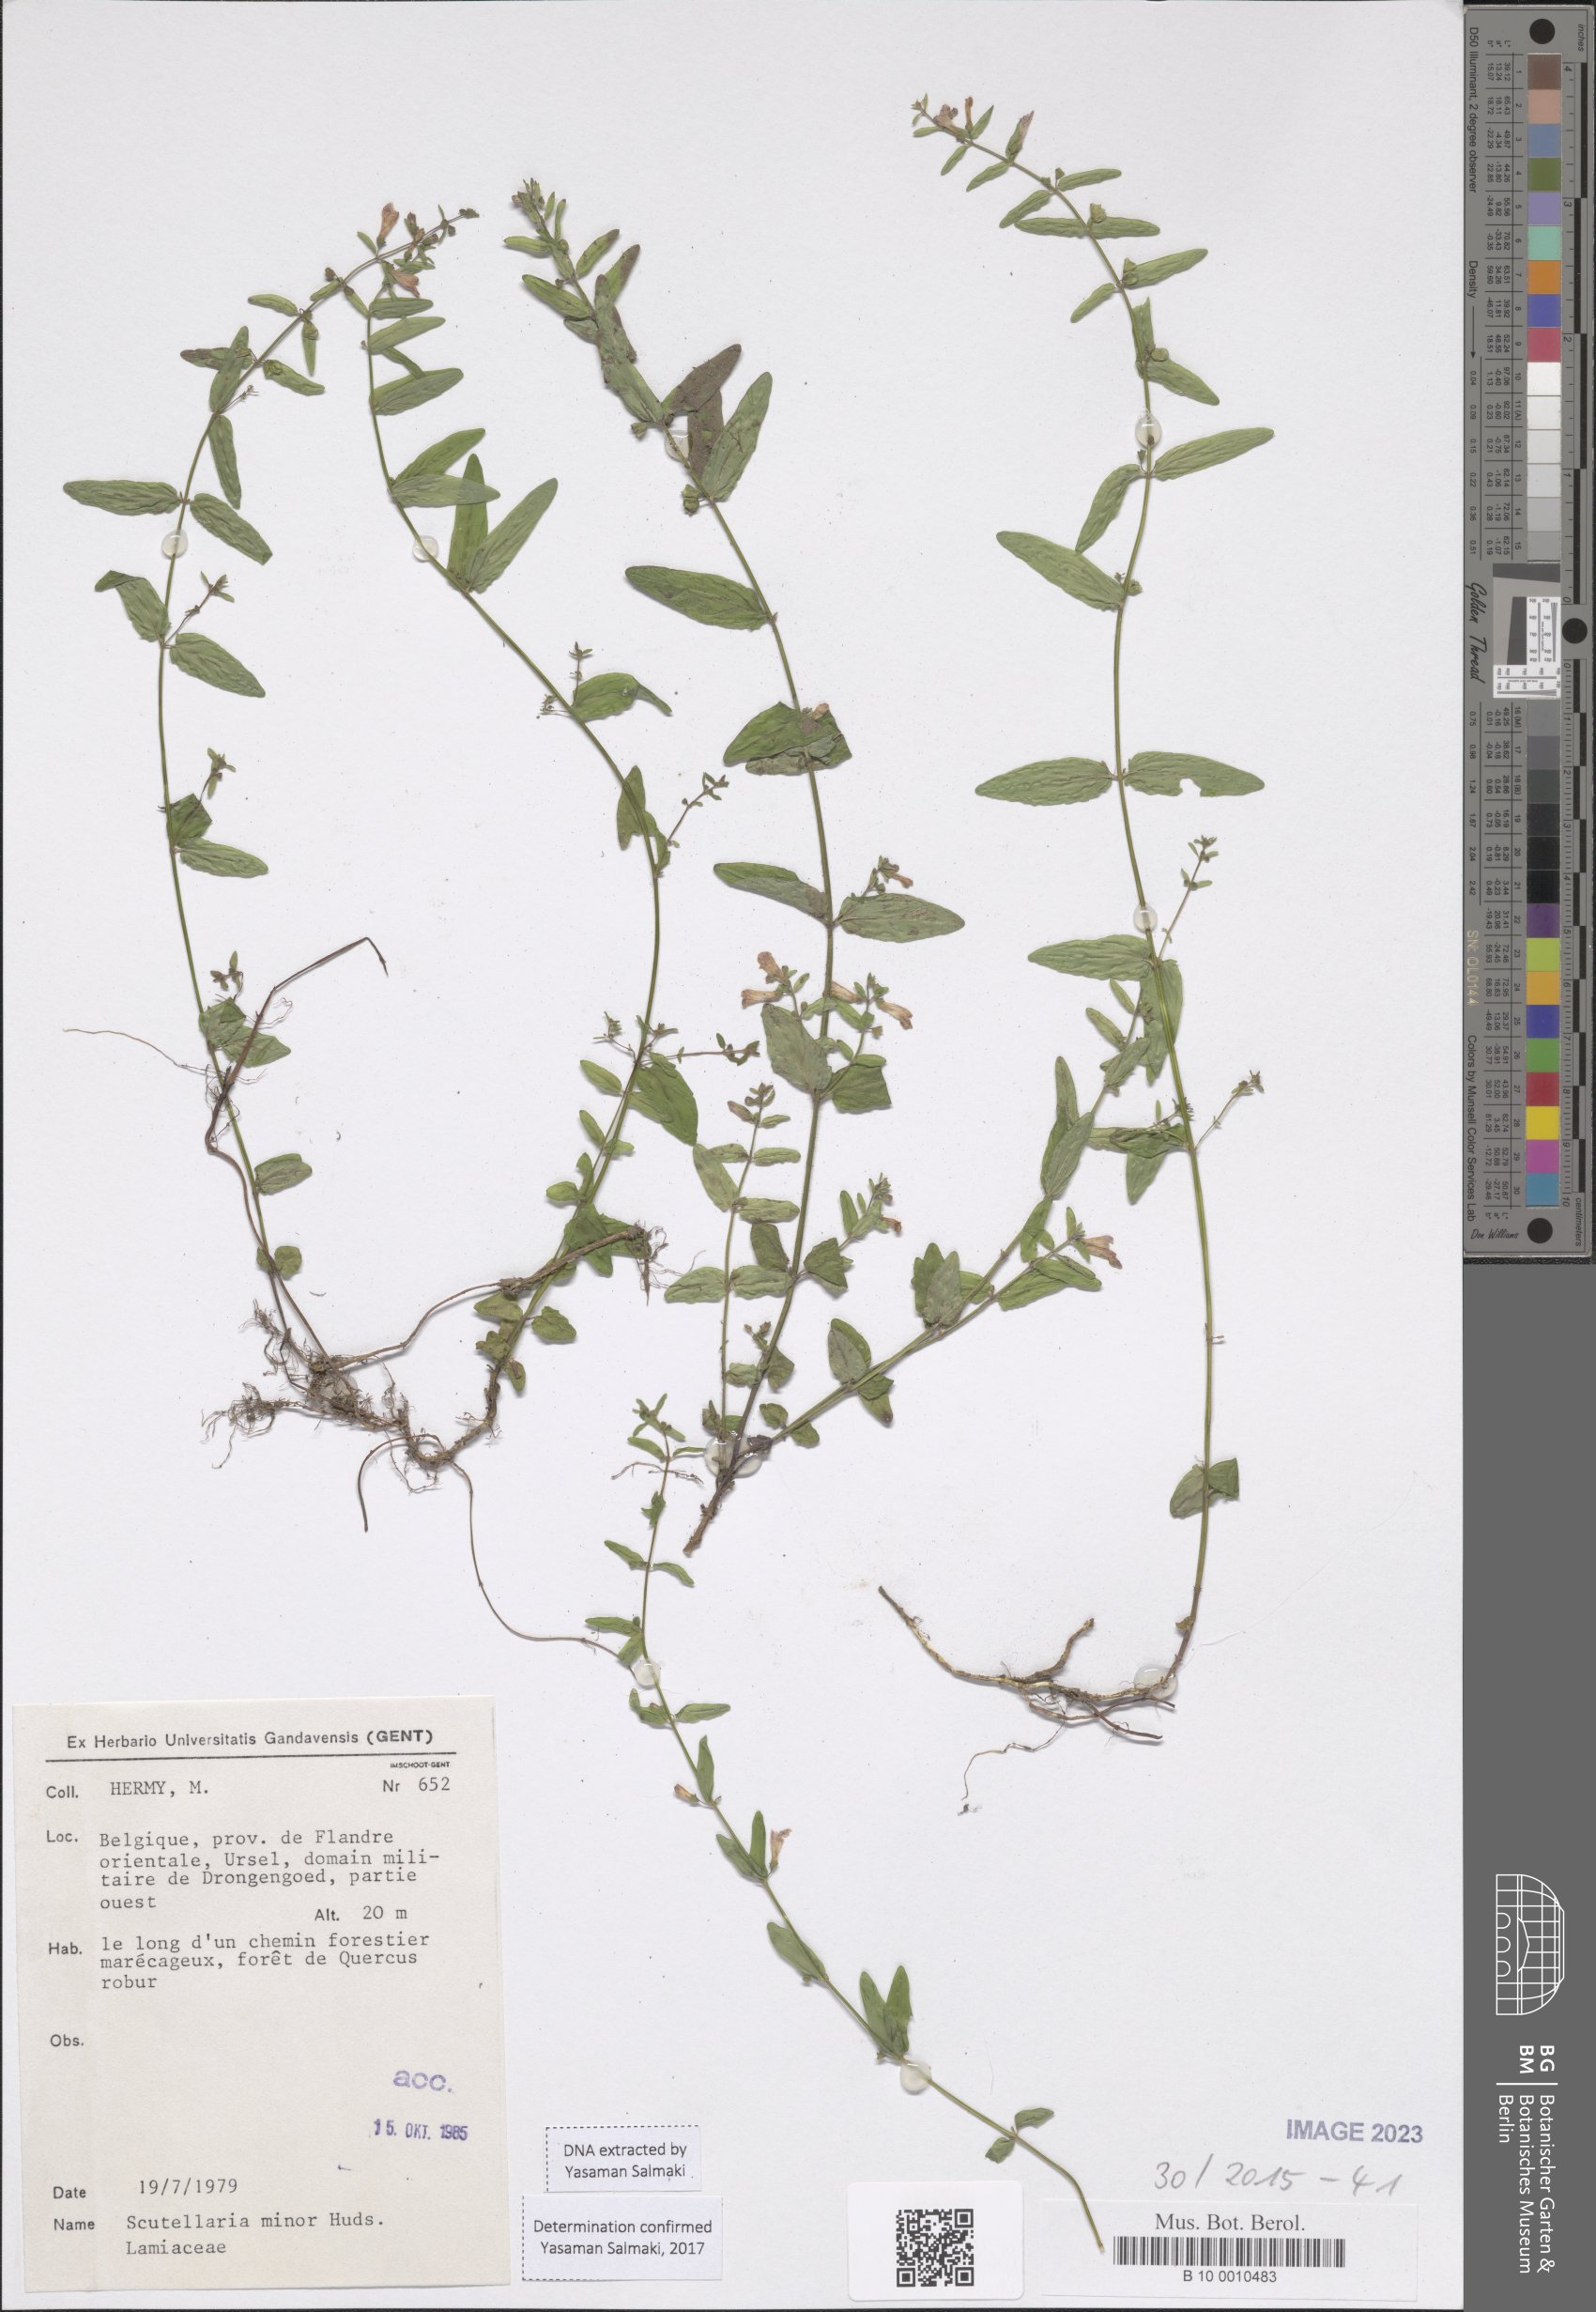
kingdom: Plantae
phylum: Tracheophyta
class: Magnoliopsida
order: Lamiales
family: Lamiaceae
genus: Scutellaria
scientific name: Scutellaria minor
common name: Lesser skullcap
